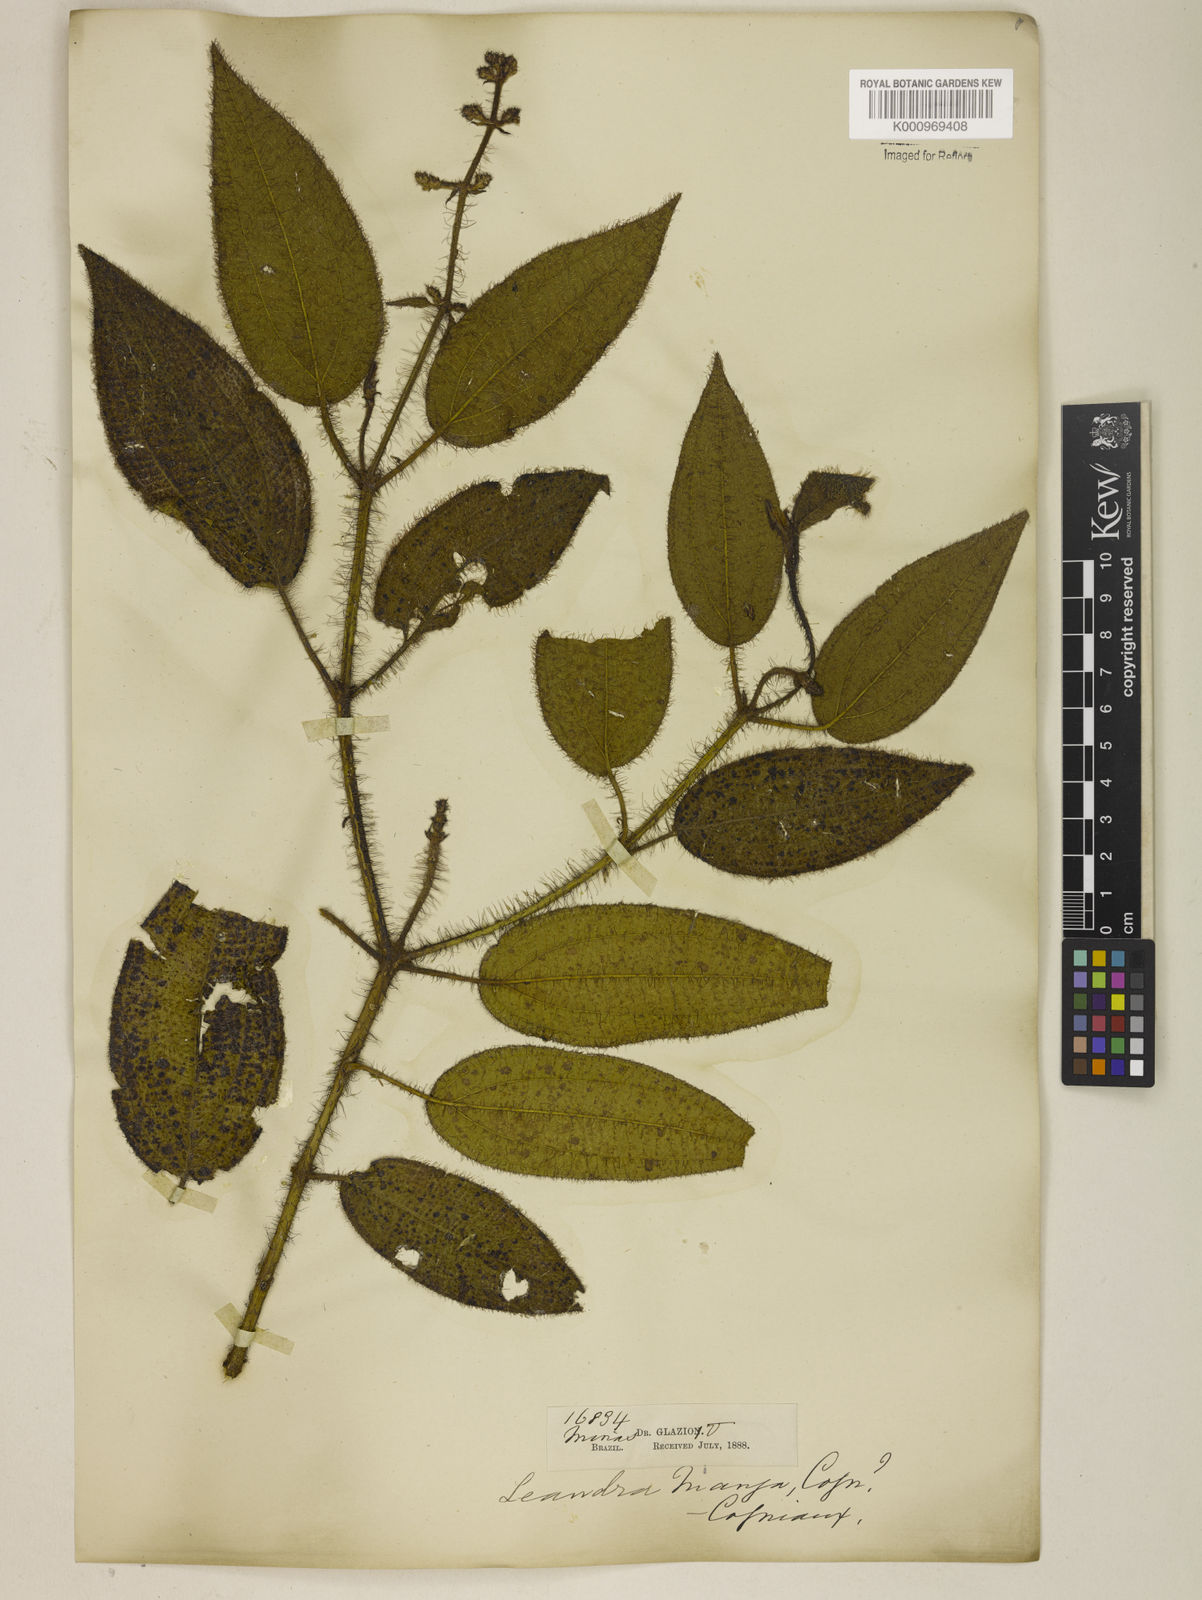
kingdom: Plantae
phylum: Tracheophyta
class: Magnoliopsida
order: Myrtales
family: Melastomataceae
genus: Miconia
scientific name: Miconia nianga
